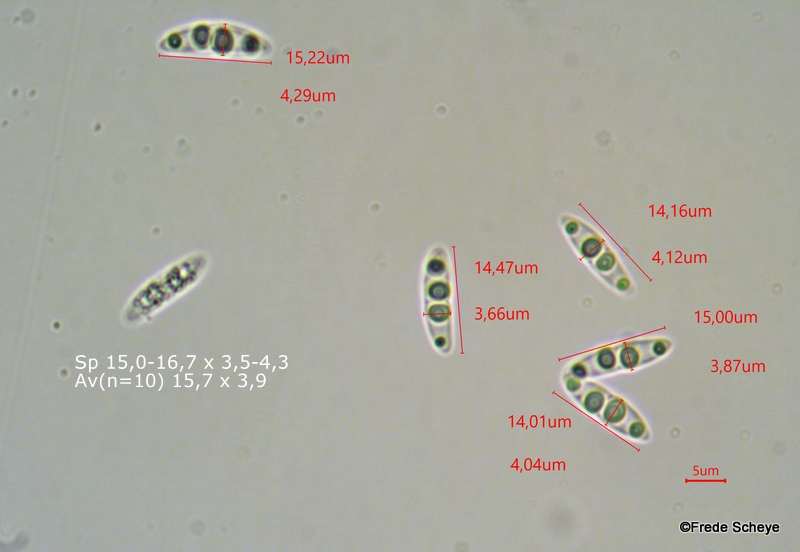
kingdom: Fungi
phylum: Ascomycota
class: Sordariomycetes
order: Diaporthales
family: Diaporthaceae
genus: Diaporthe
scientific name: Diaporthe strumella
